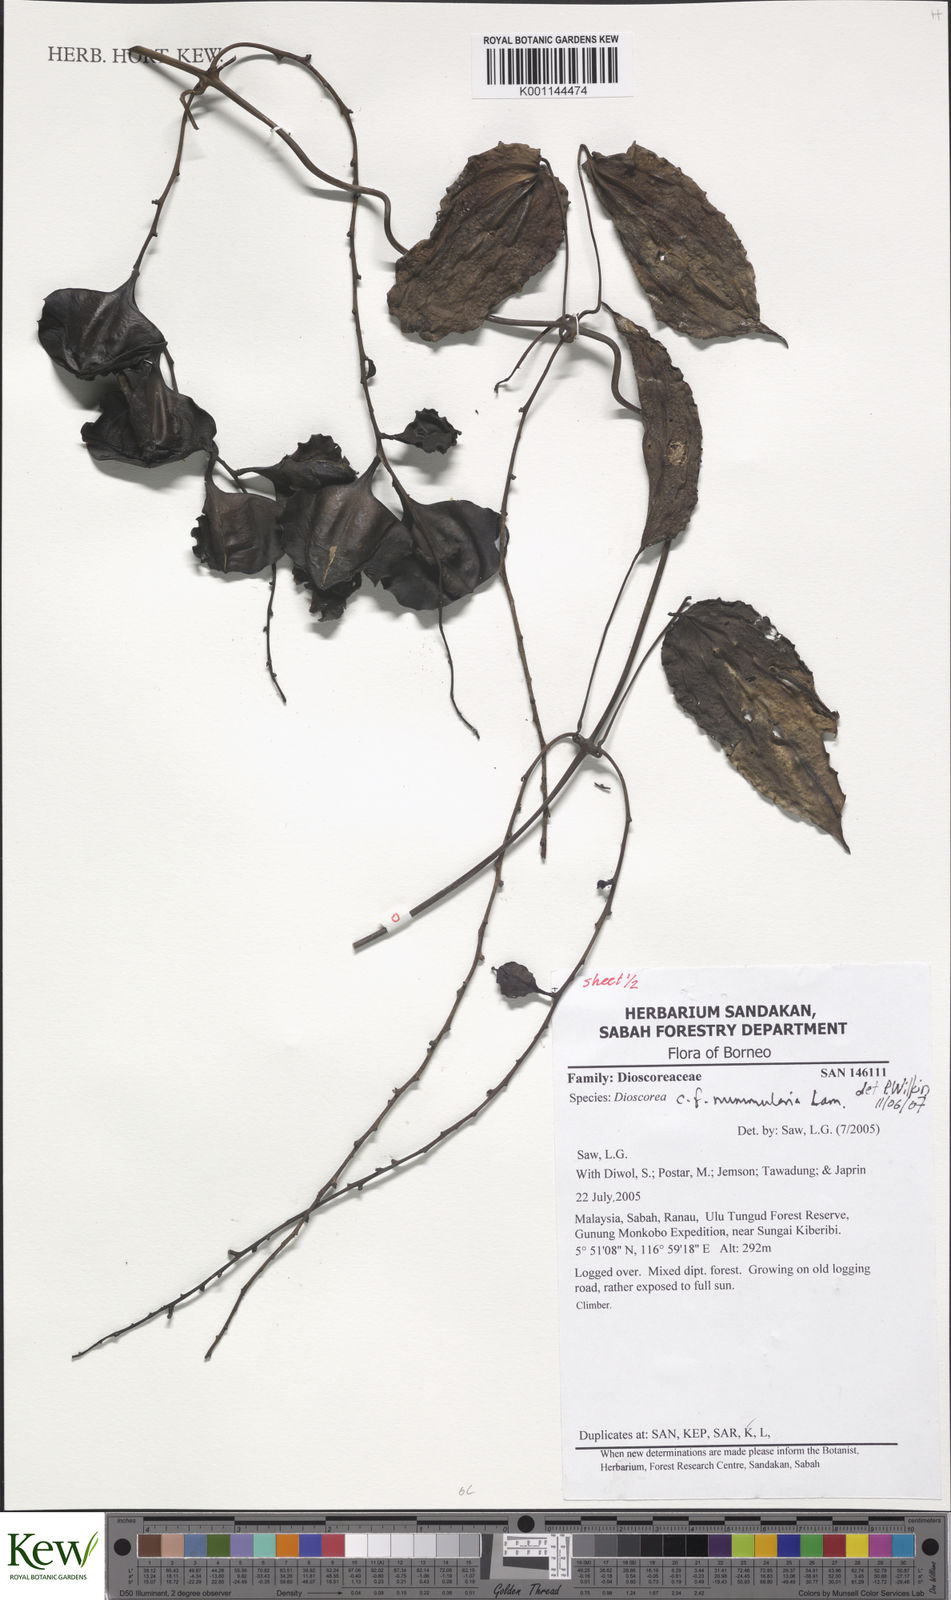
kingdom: Plantae
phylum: Tracheophyta
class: Liliopsida
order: Dioscoreales
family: Dioscoreaceae
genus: Dioscorea
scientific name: Dioscorea nummularia
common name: Pacific yam
